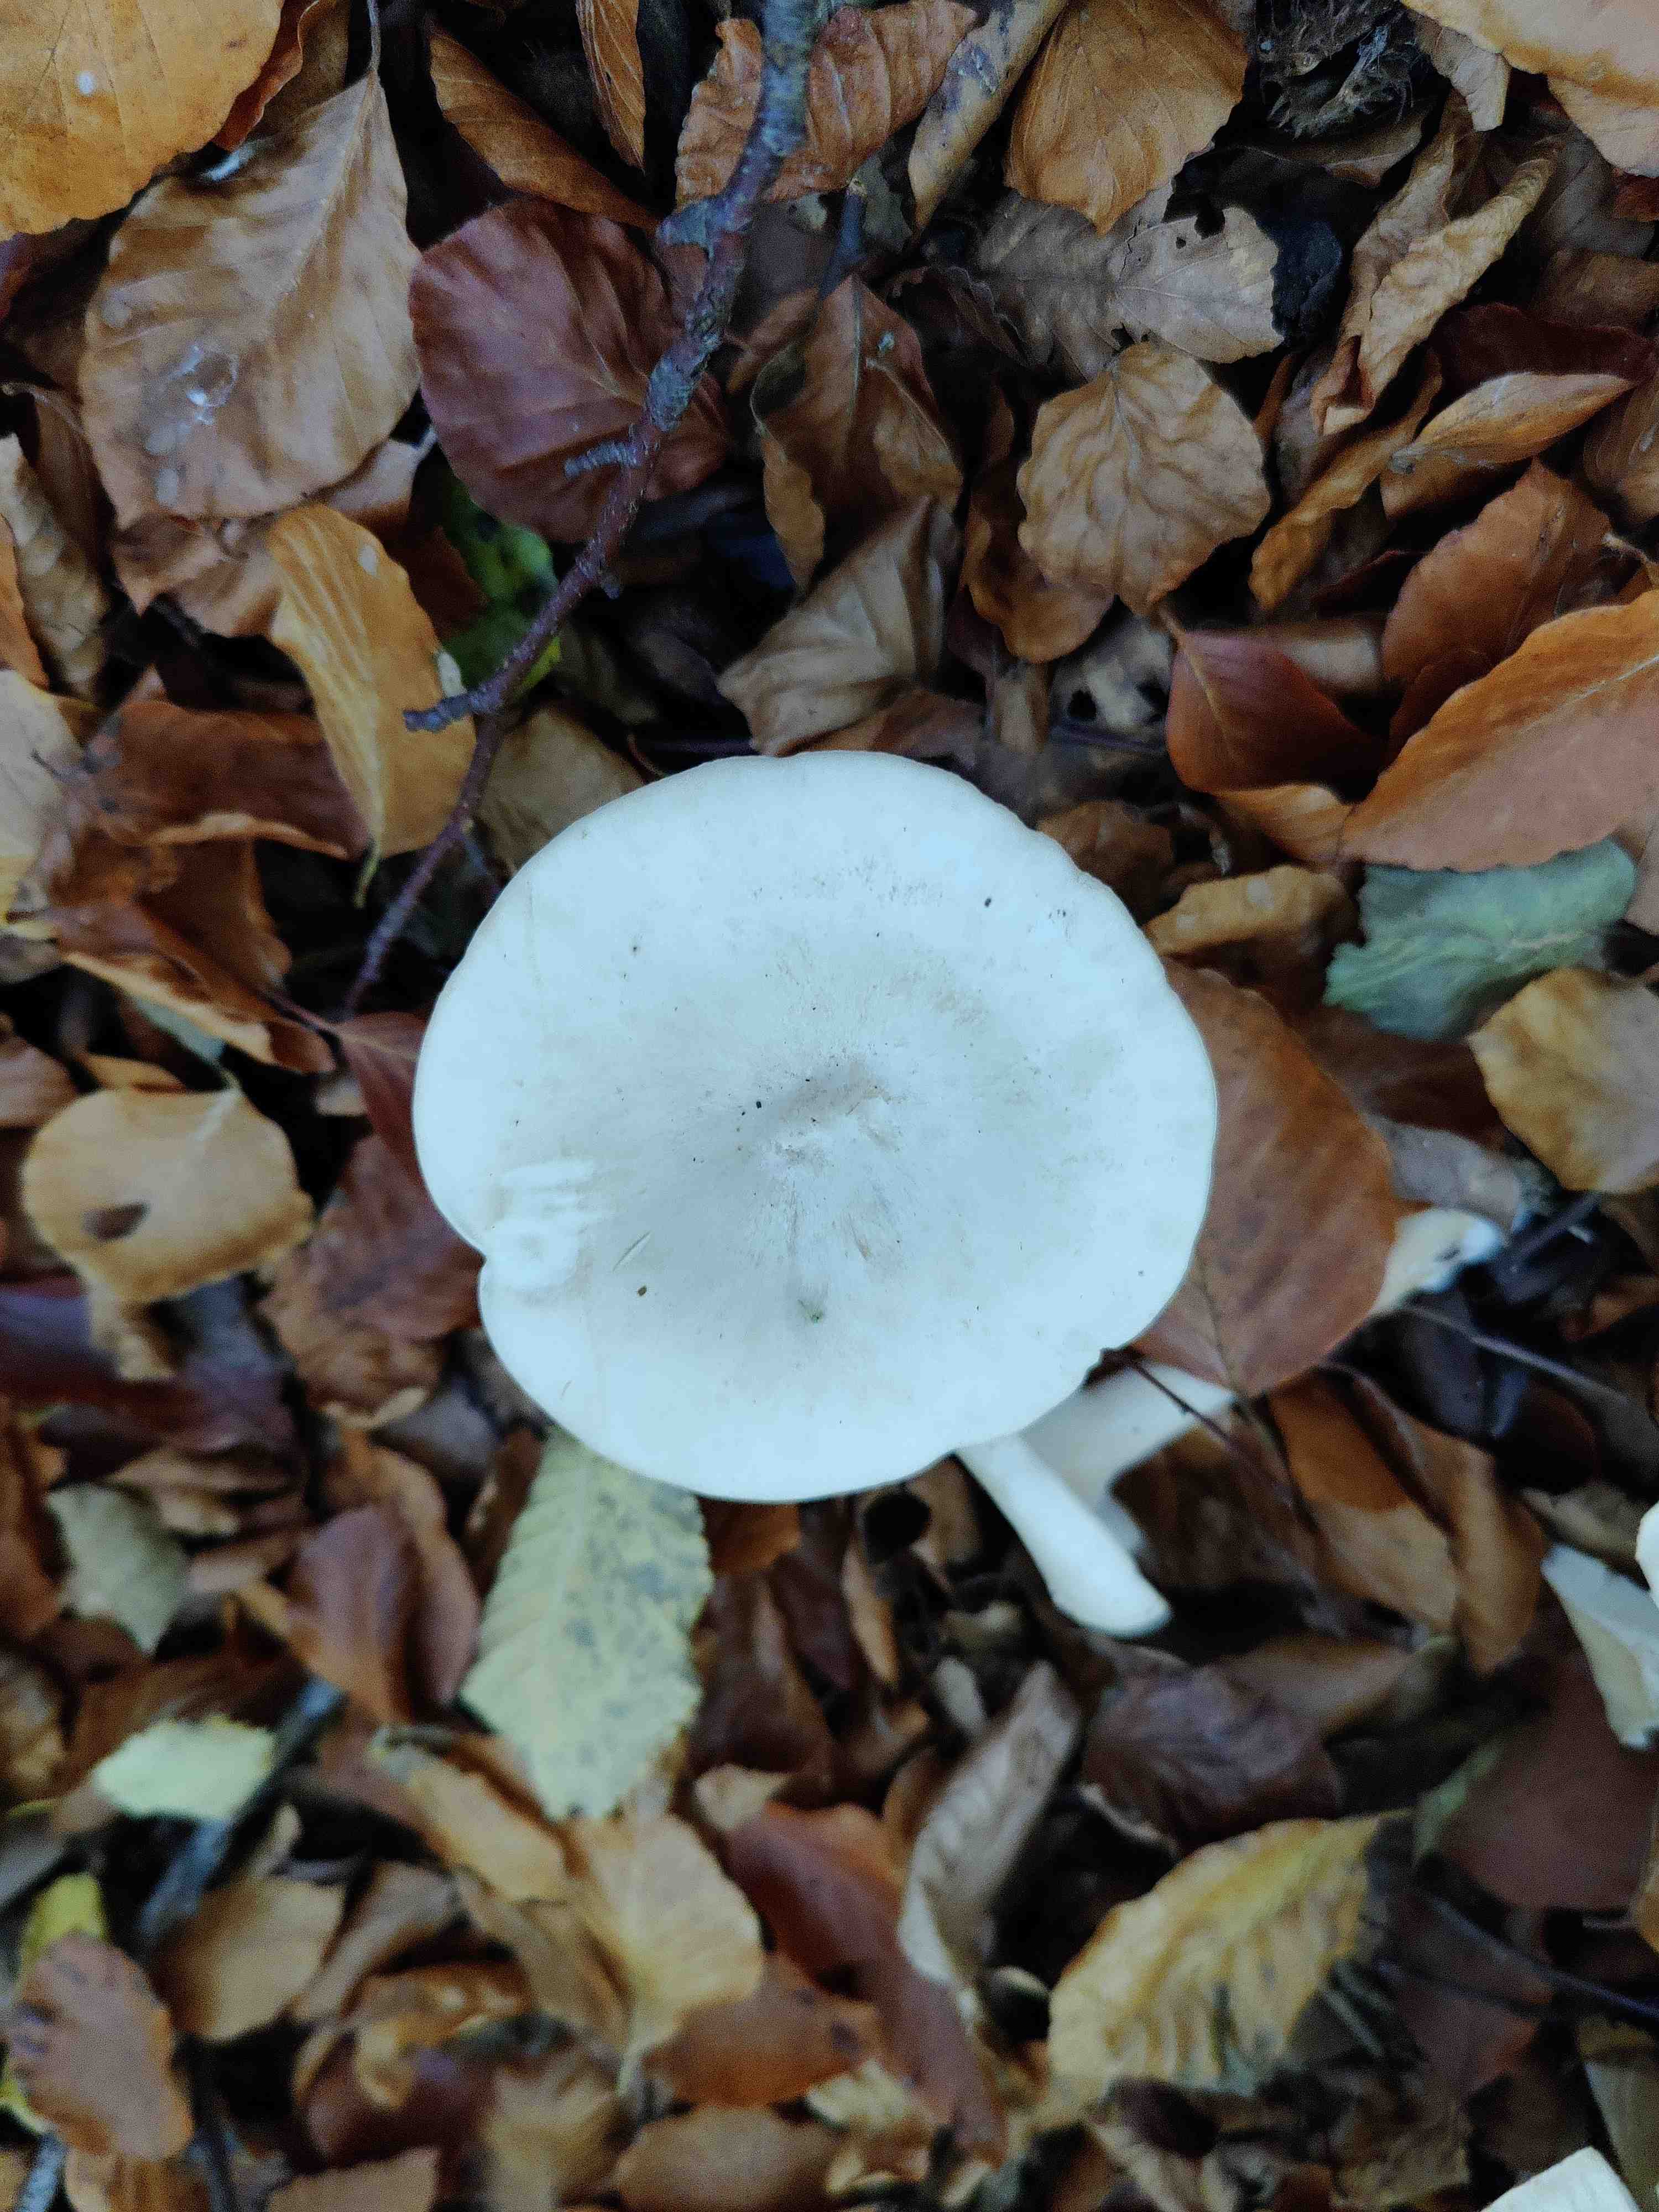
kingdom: Fungi
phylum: Basidiomycota
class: Agaricomycetes
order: Agaricales
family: Tricholomataceae
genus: Infundibulicybe
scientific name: Infundibulicybe geotropa
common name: stor tragthat
